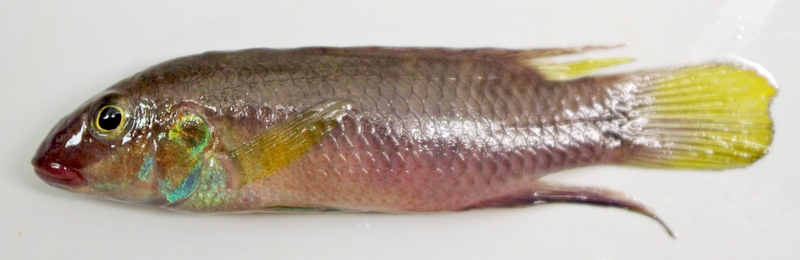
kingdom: Animalia
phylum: Chordata
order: Perciformes
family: Cichlidae
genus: Pelvicachromis
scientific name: Pelvicachromis humilis
